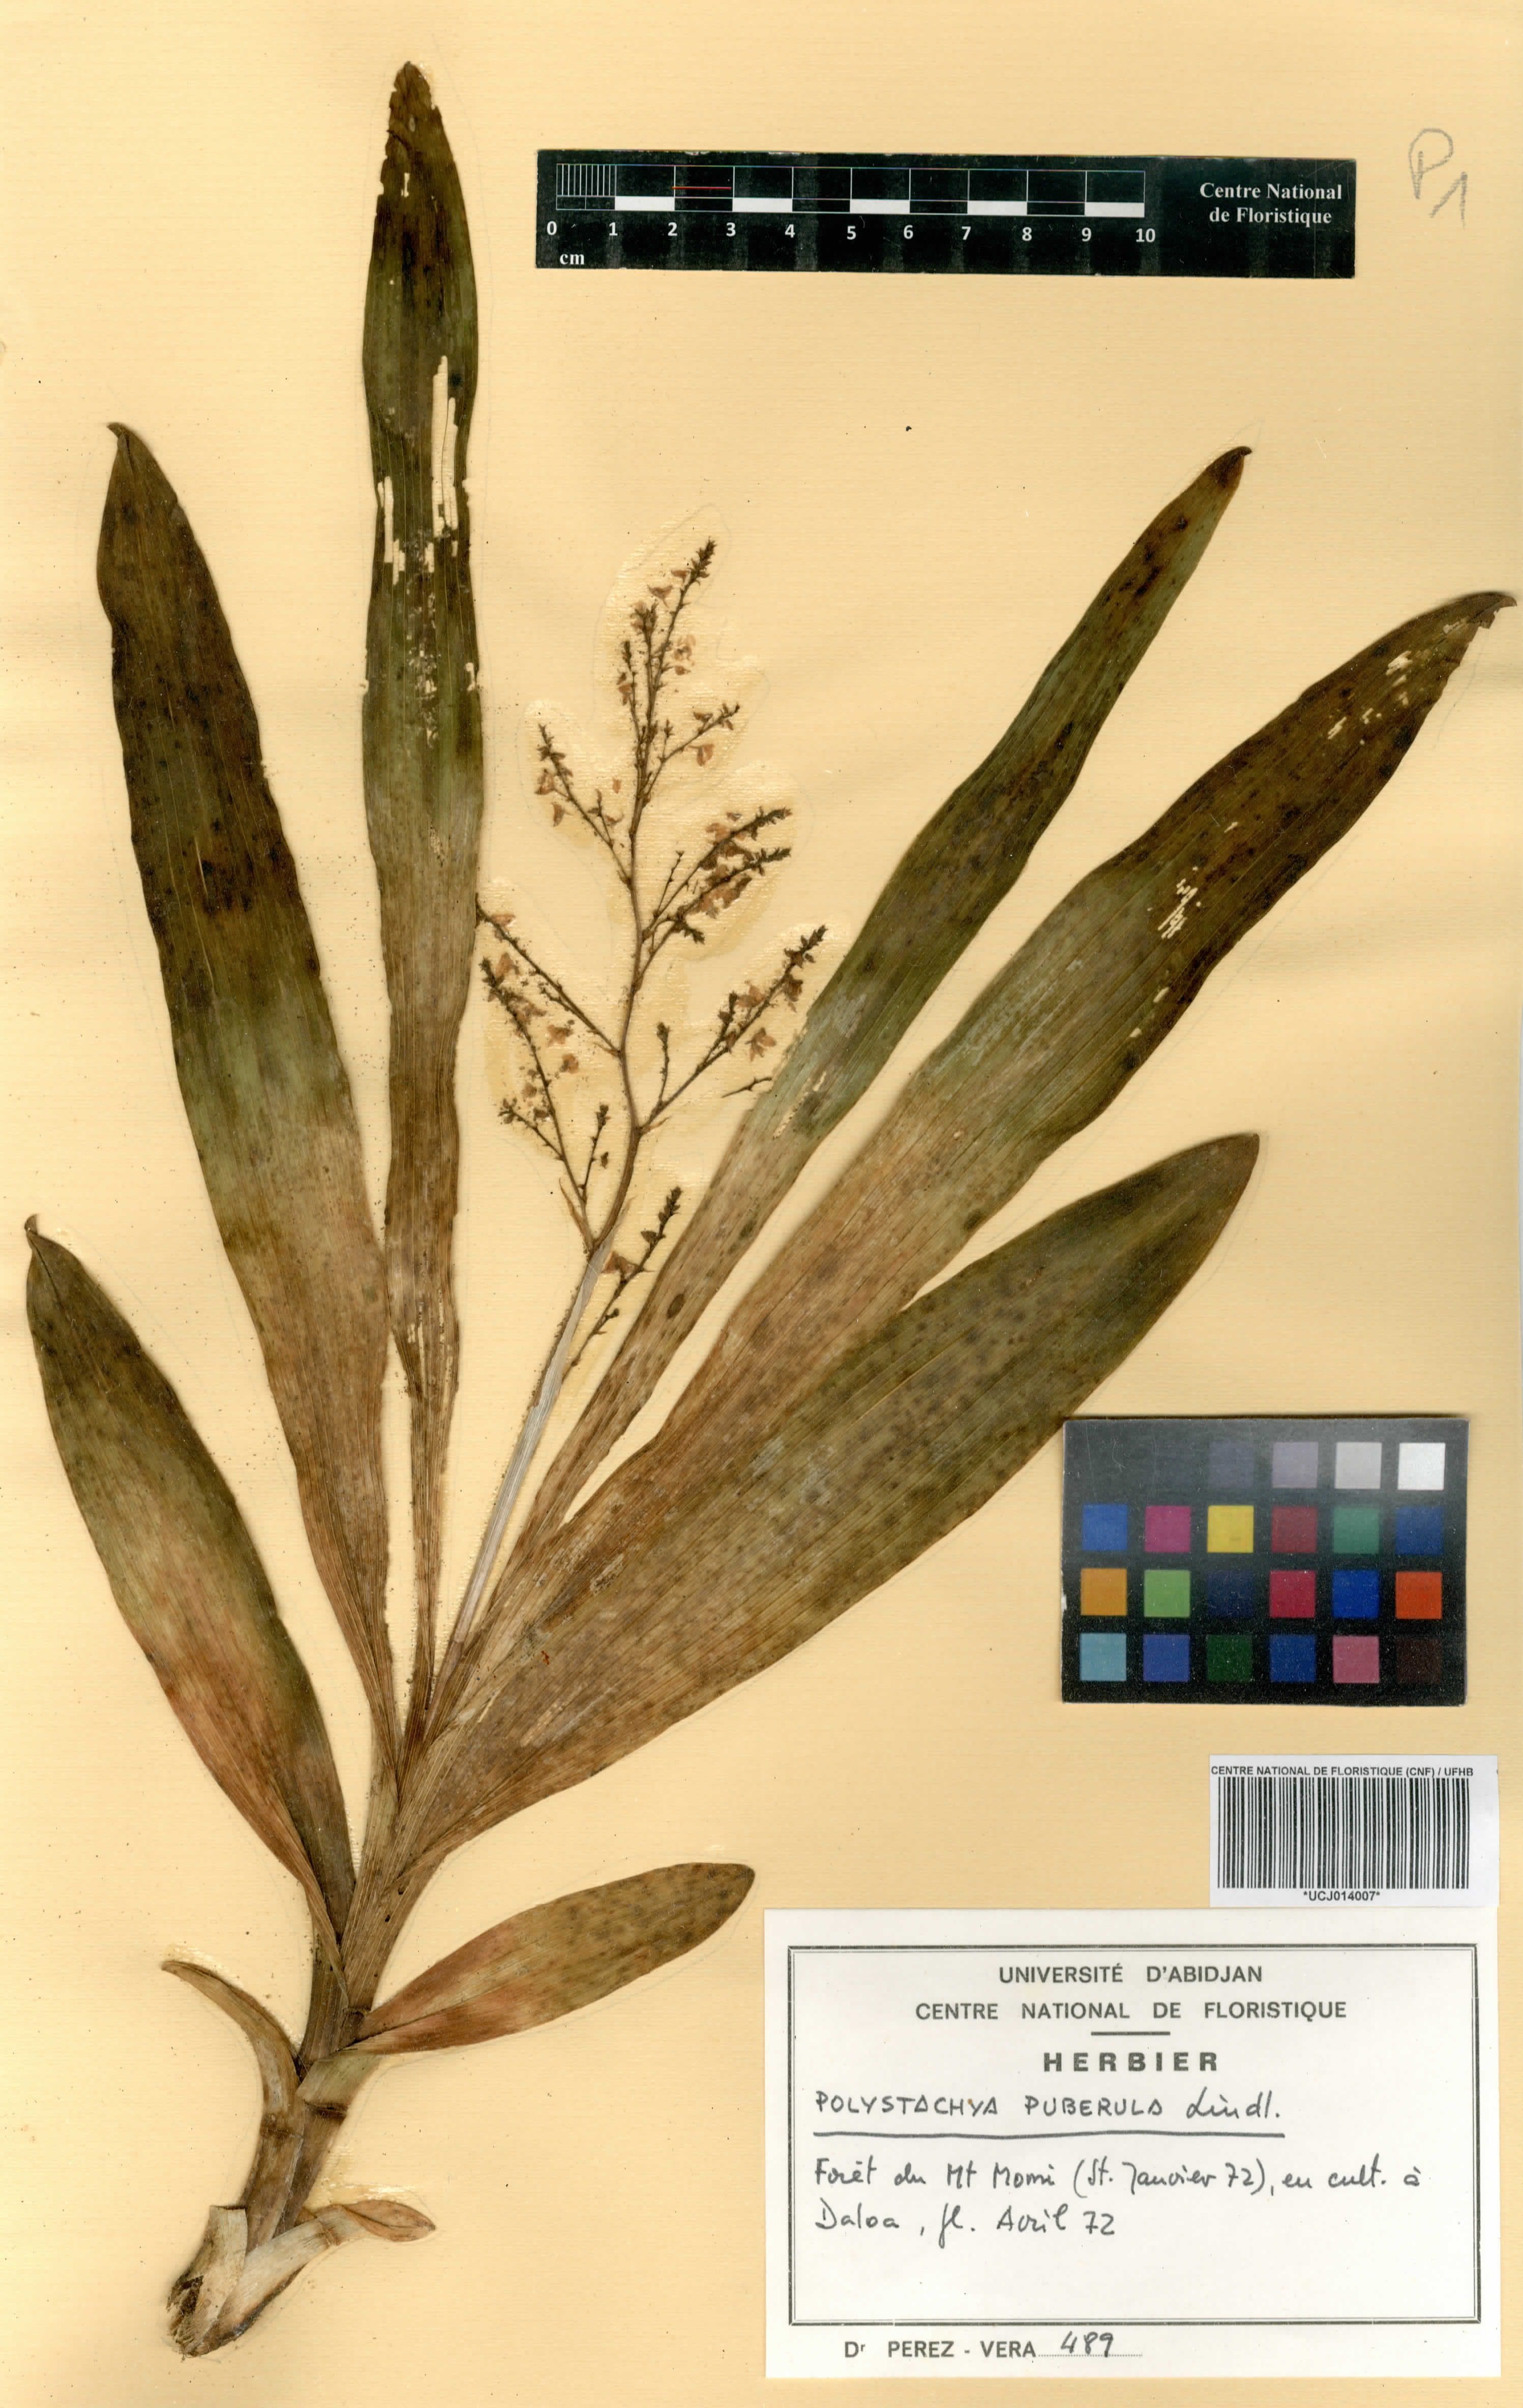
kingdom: Plantae
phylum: Tracheophyta
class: Liliopsida
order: Asparagales
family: Orchidaceae
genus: Polystachya
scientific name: Polystachya puberula
